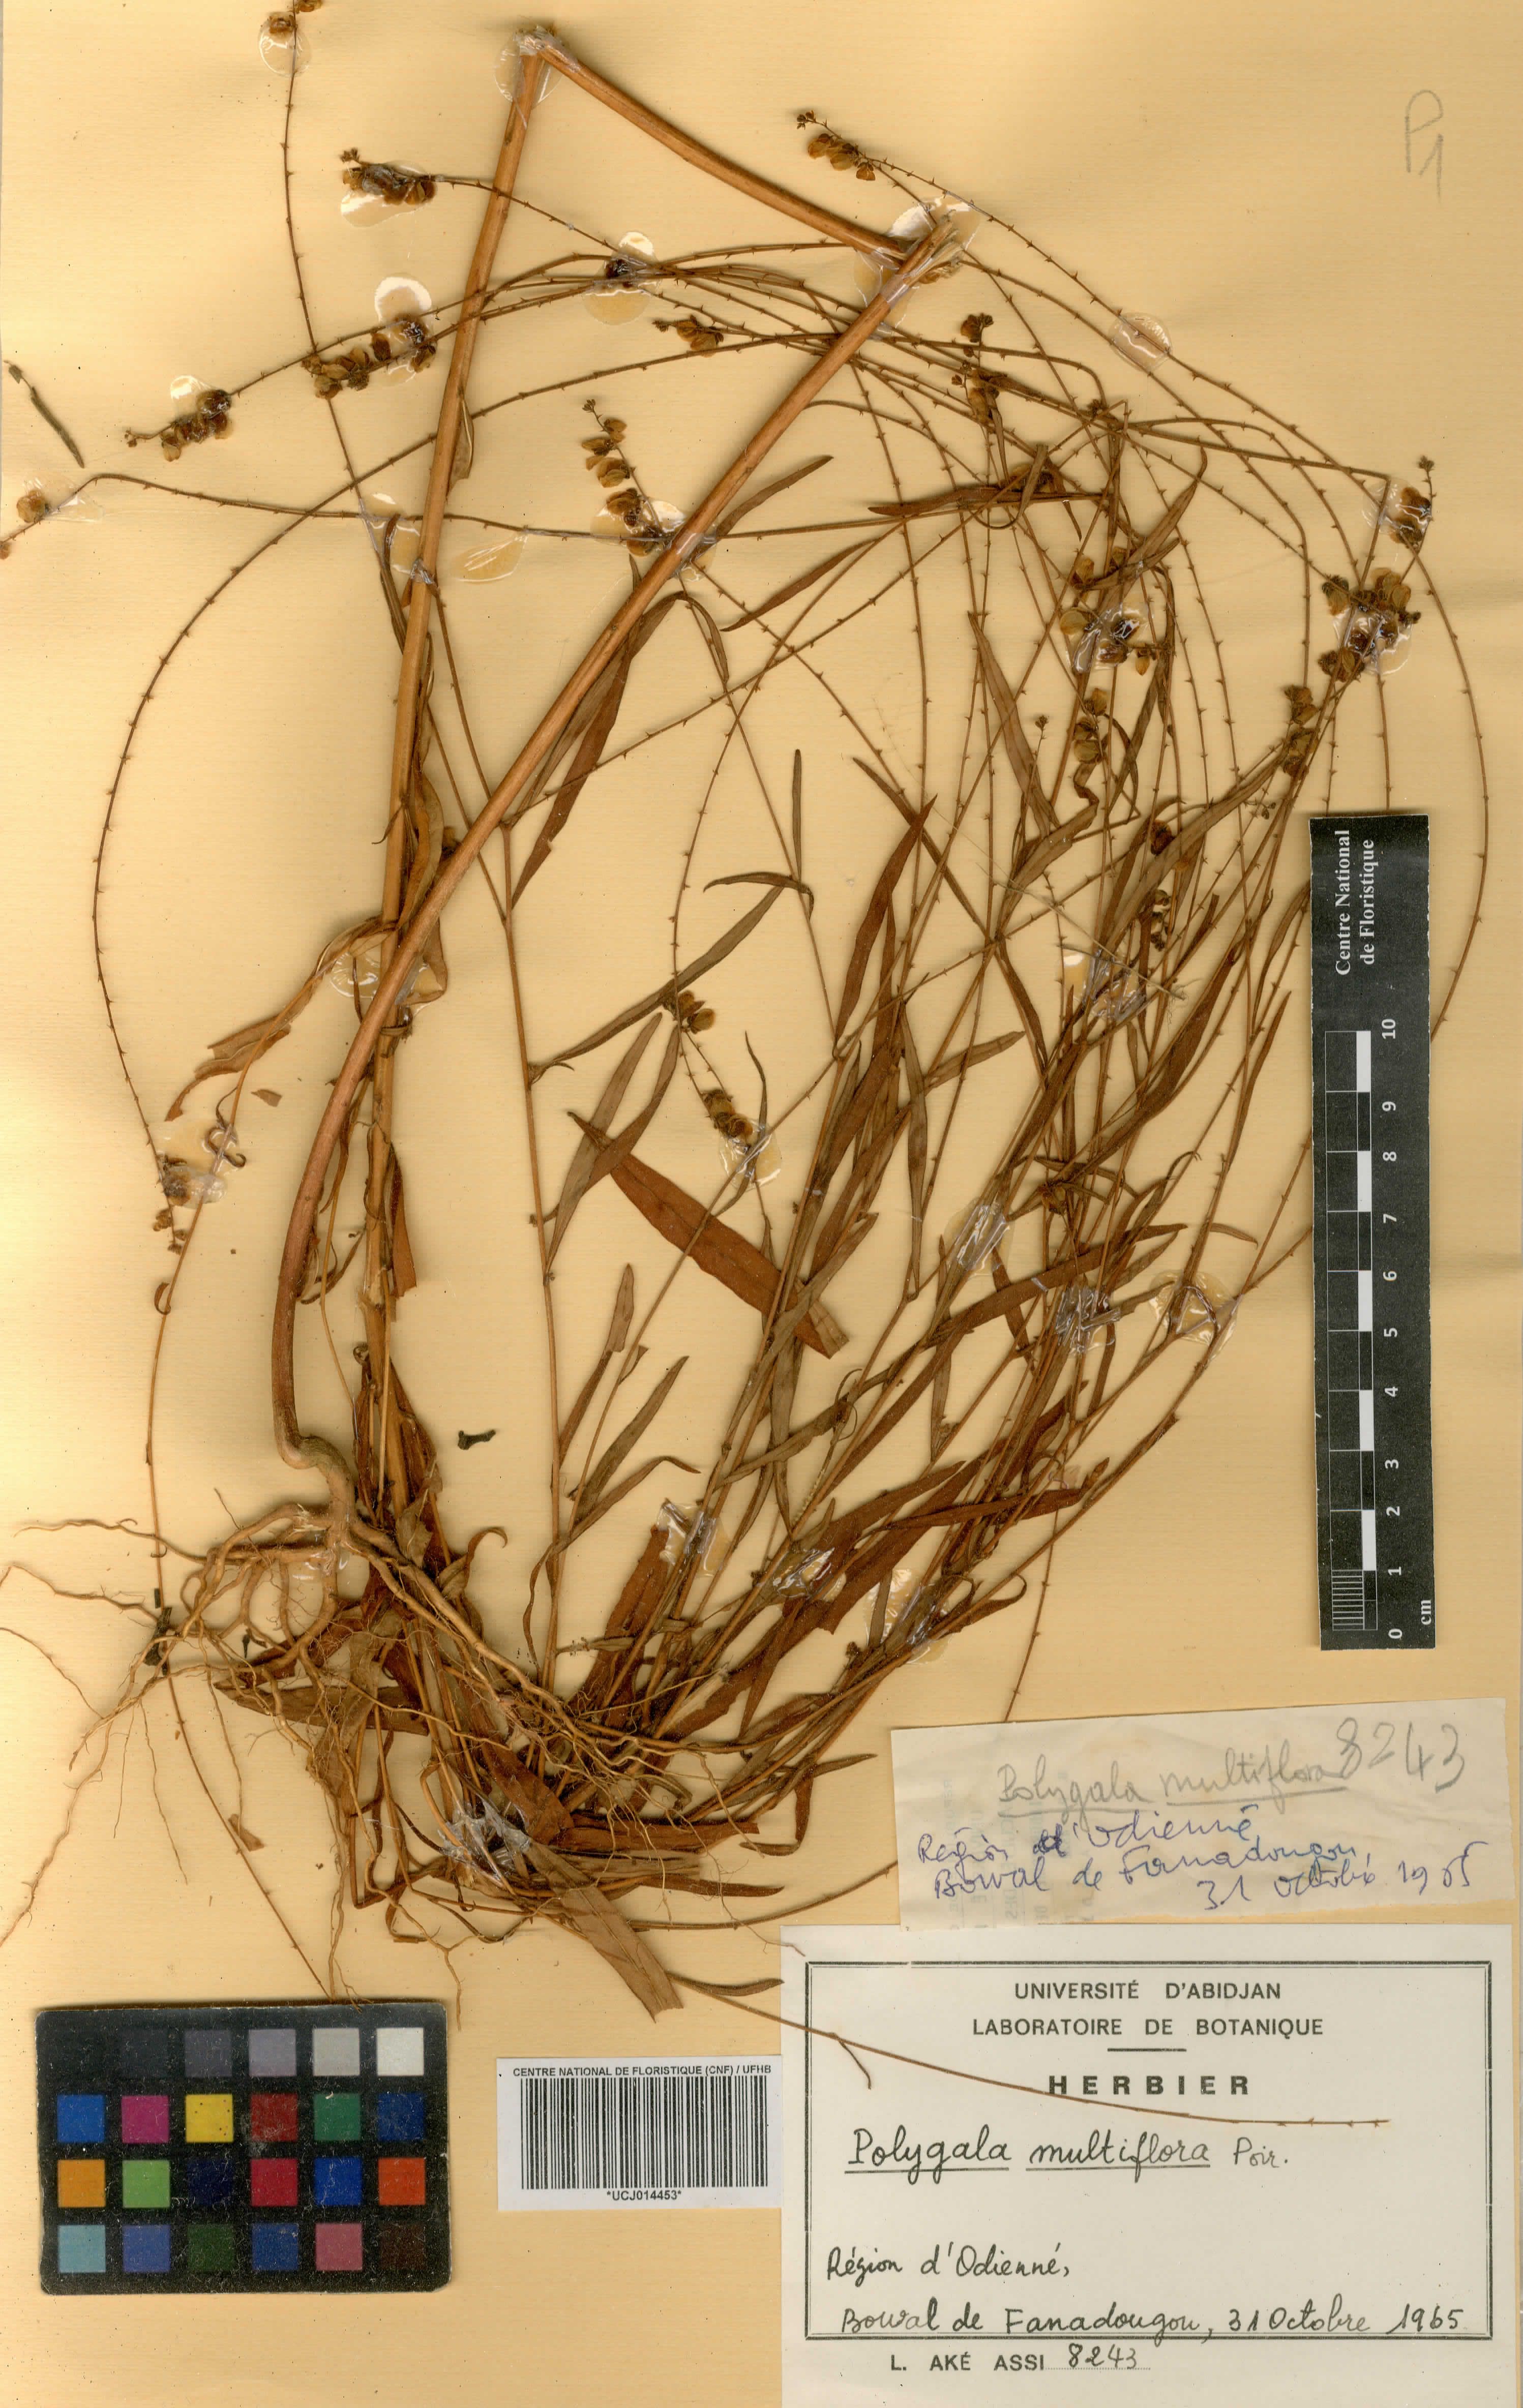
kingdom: Plantae
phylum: Tracheophyta
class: Magnoliopsida
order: Fabales
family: Polygalaceae
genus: Polygala
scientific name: Polygala multiflora
